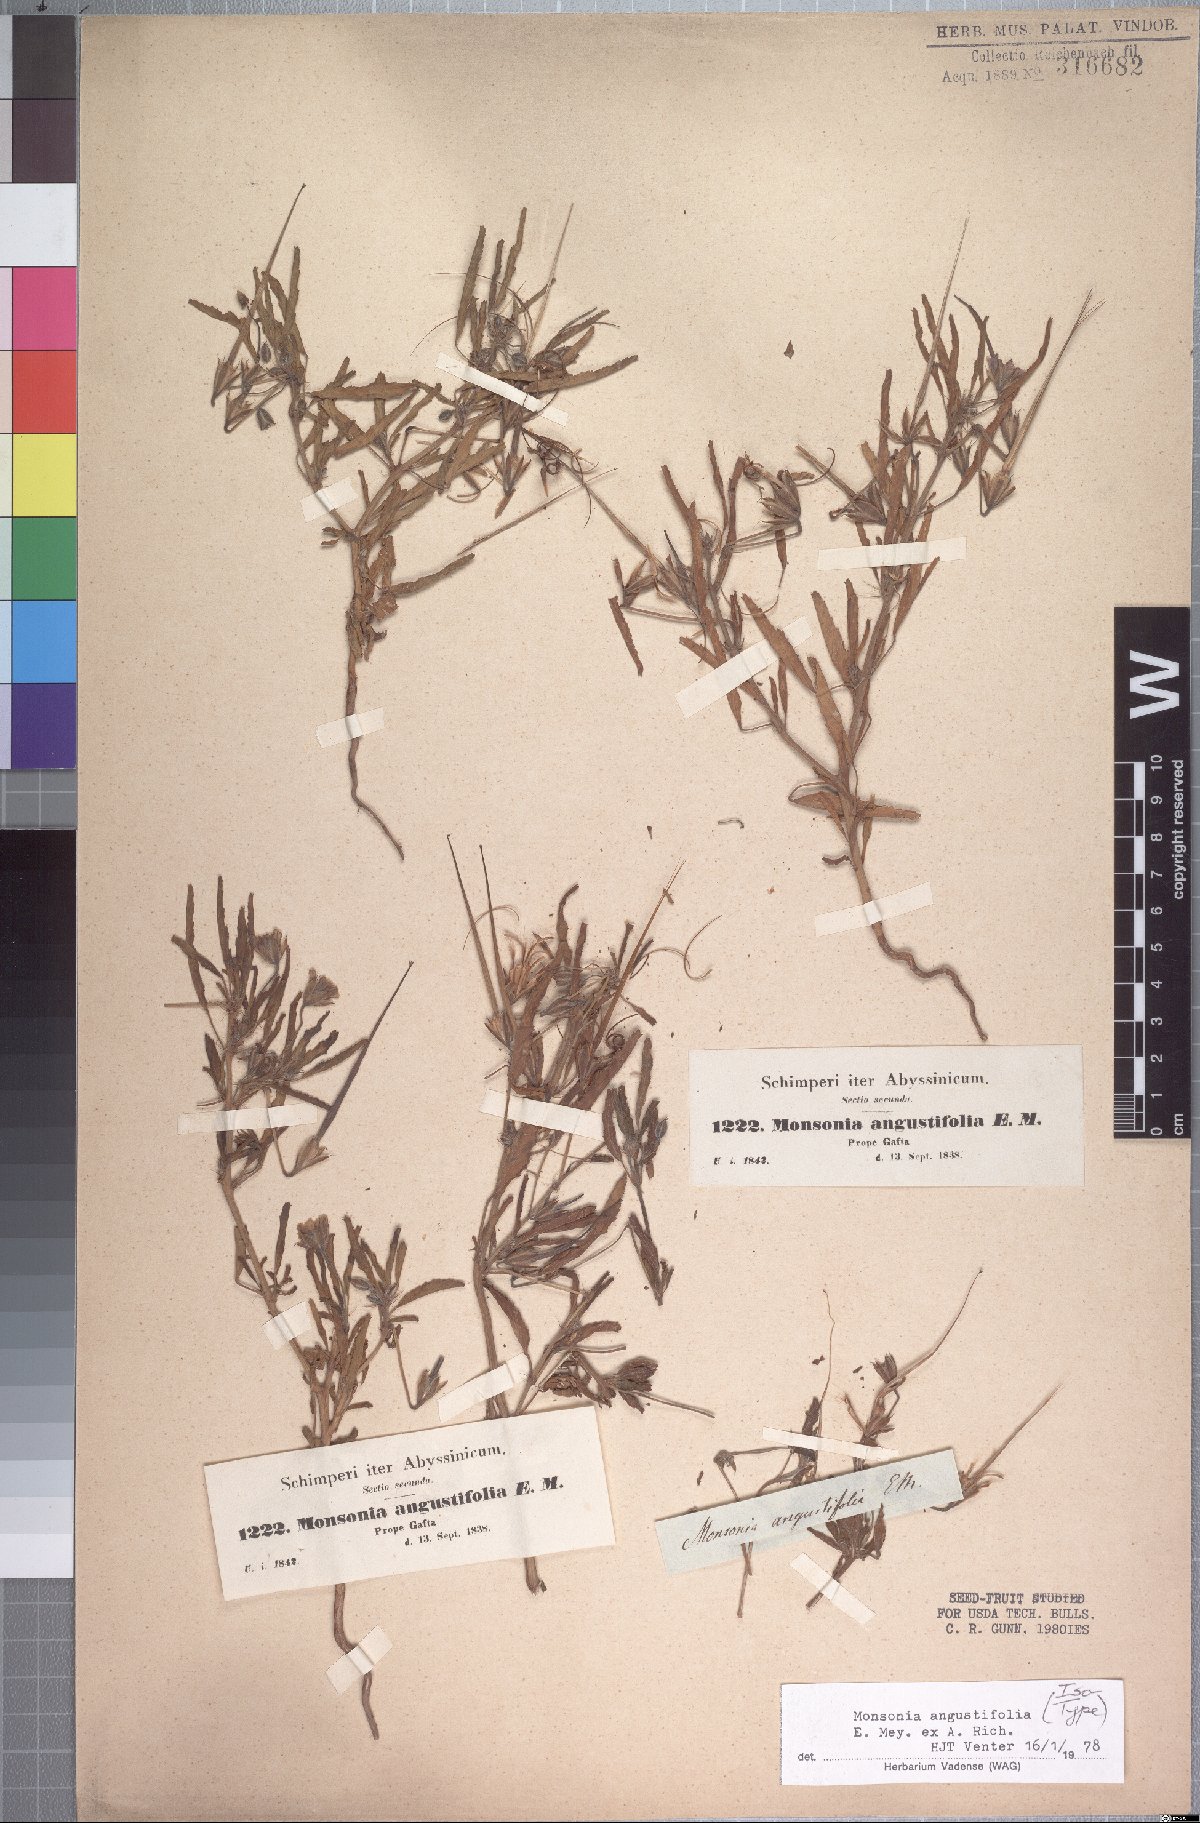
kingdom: Plantae
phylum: Tracheophyta
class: Magnoliopsida
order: Geraniales
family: Geraniaceae
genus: Monsonia
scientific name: Monsonia angustifolia
